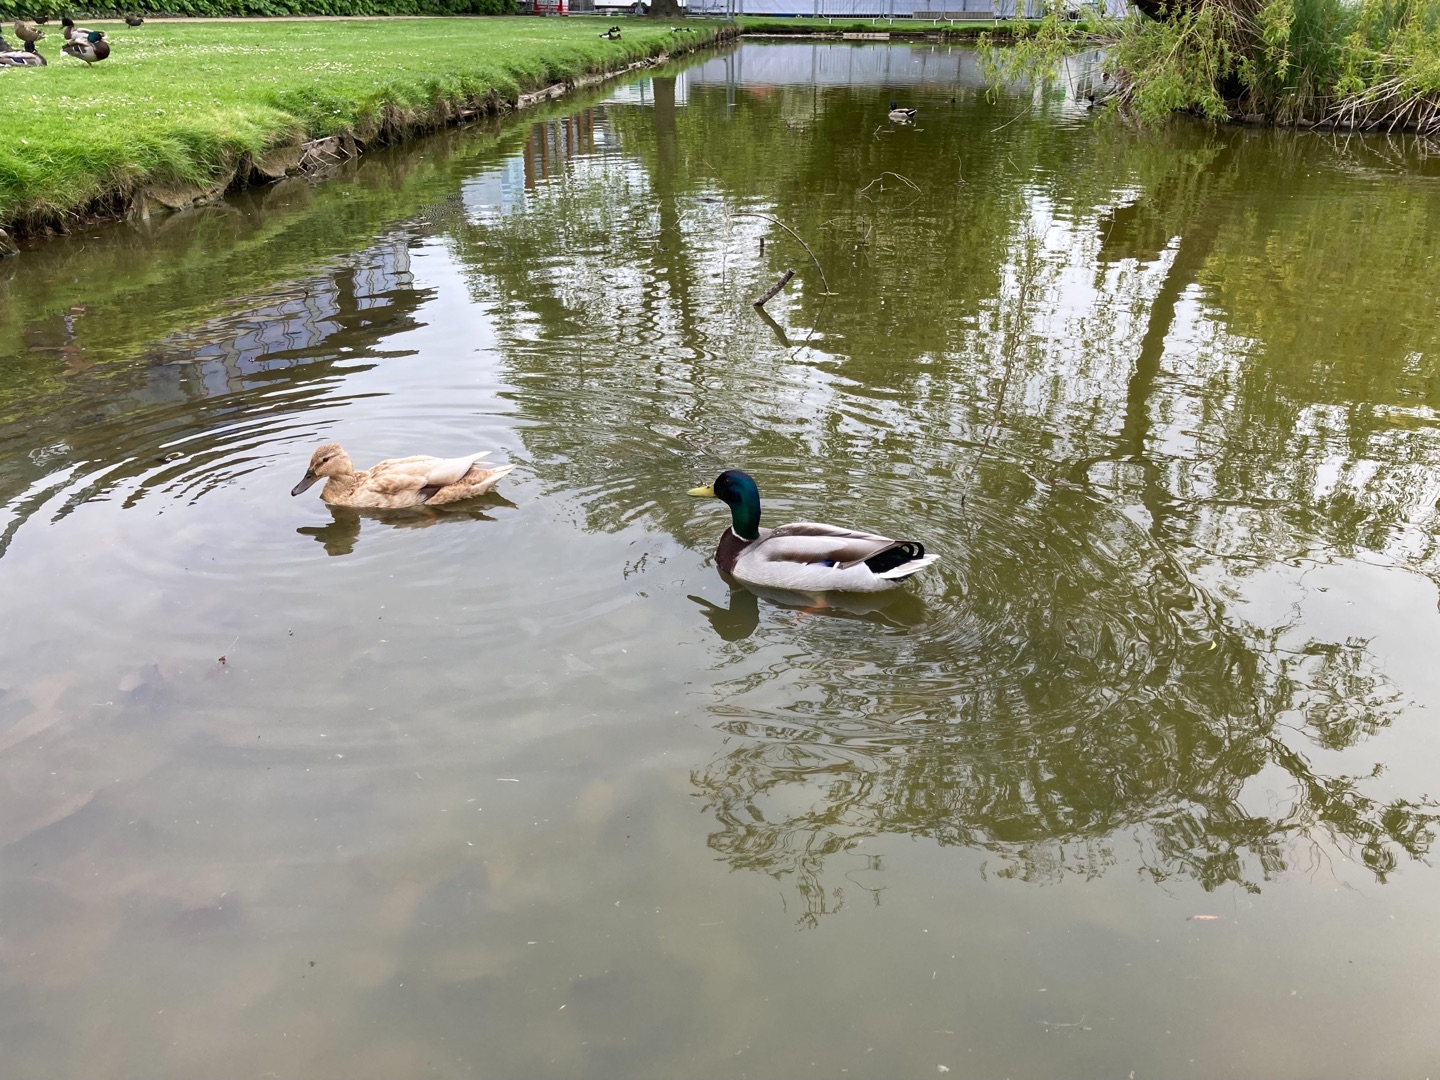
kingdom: Animalia
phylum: Chordata
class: Aves
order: Anseriformes
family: Anatidae
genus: Anas
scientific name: Anas platyrhynchos
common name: Gråand
